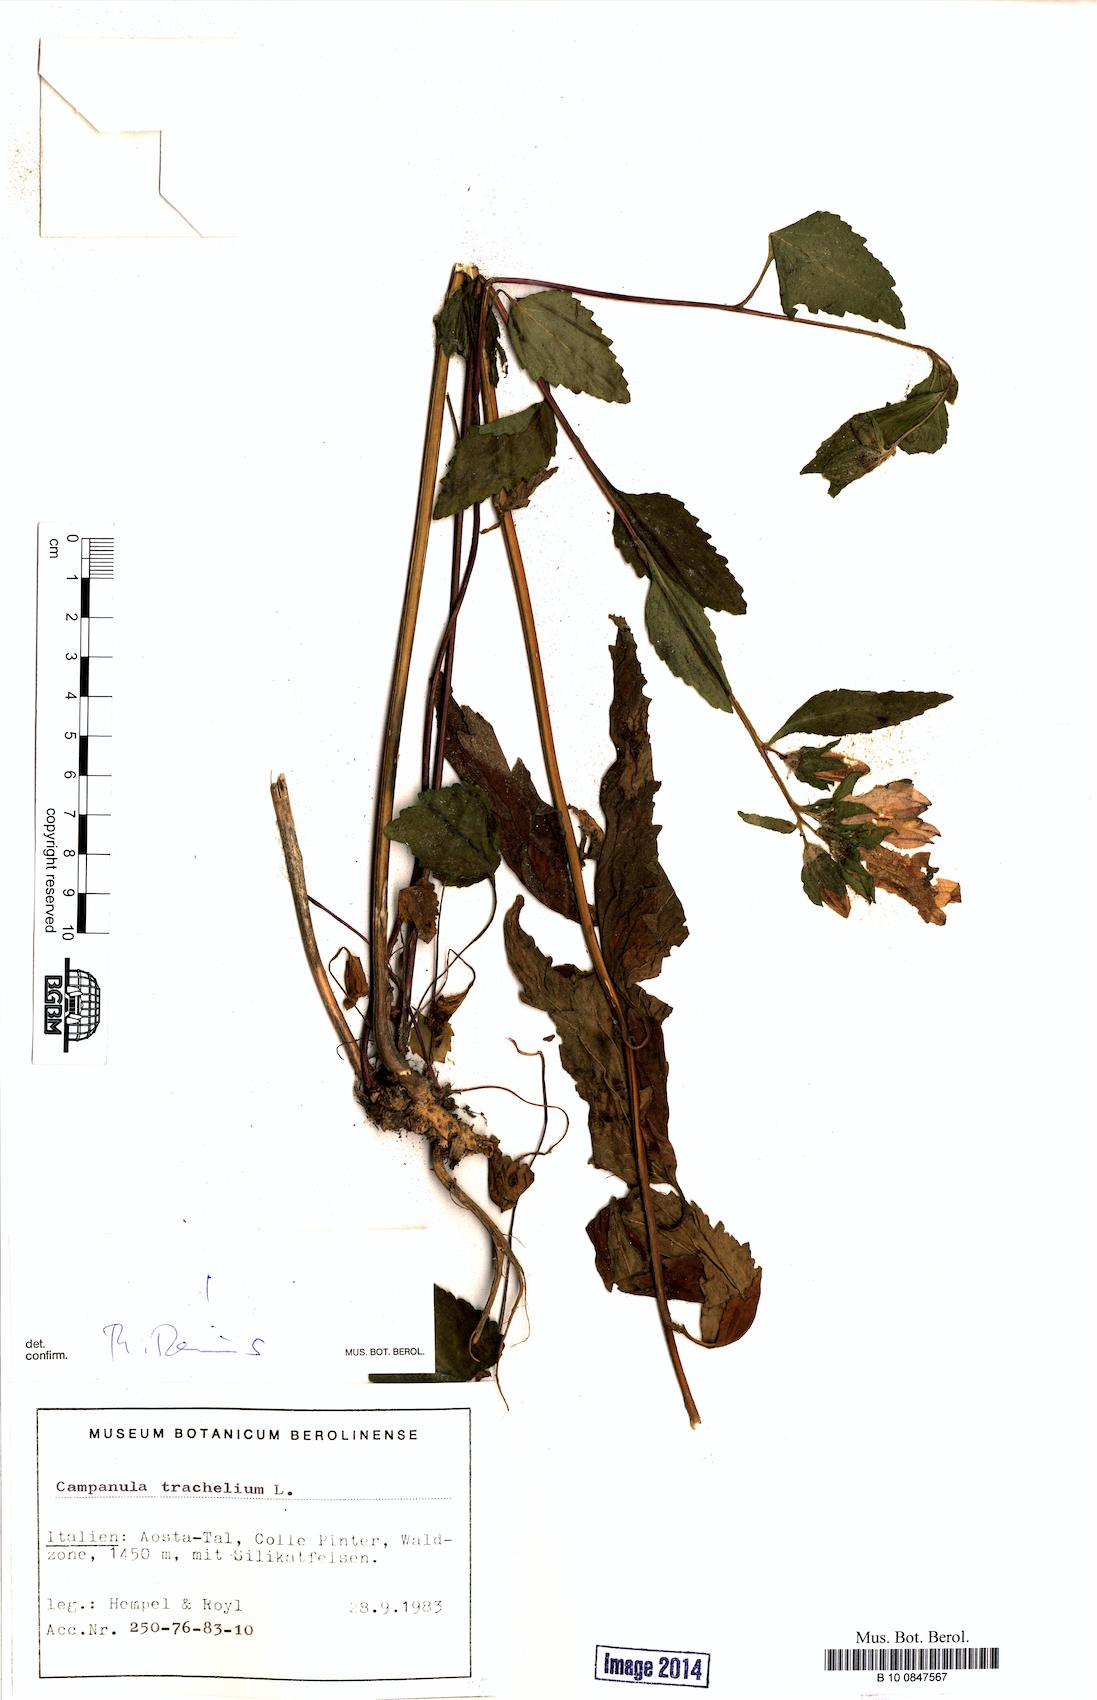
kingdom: Plantae
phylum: Tracheophyta
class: Magnoliopsida
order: Asterales
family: Campanulaceae
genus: Campanula
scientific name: Campanula trachelium
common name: Nettle-leaved bellflower
